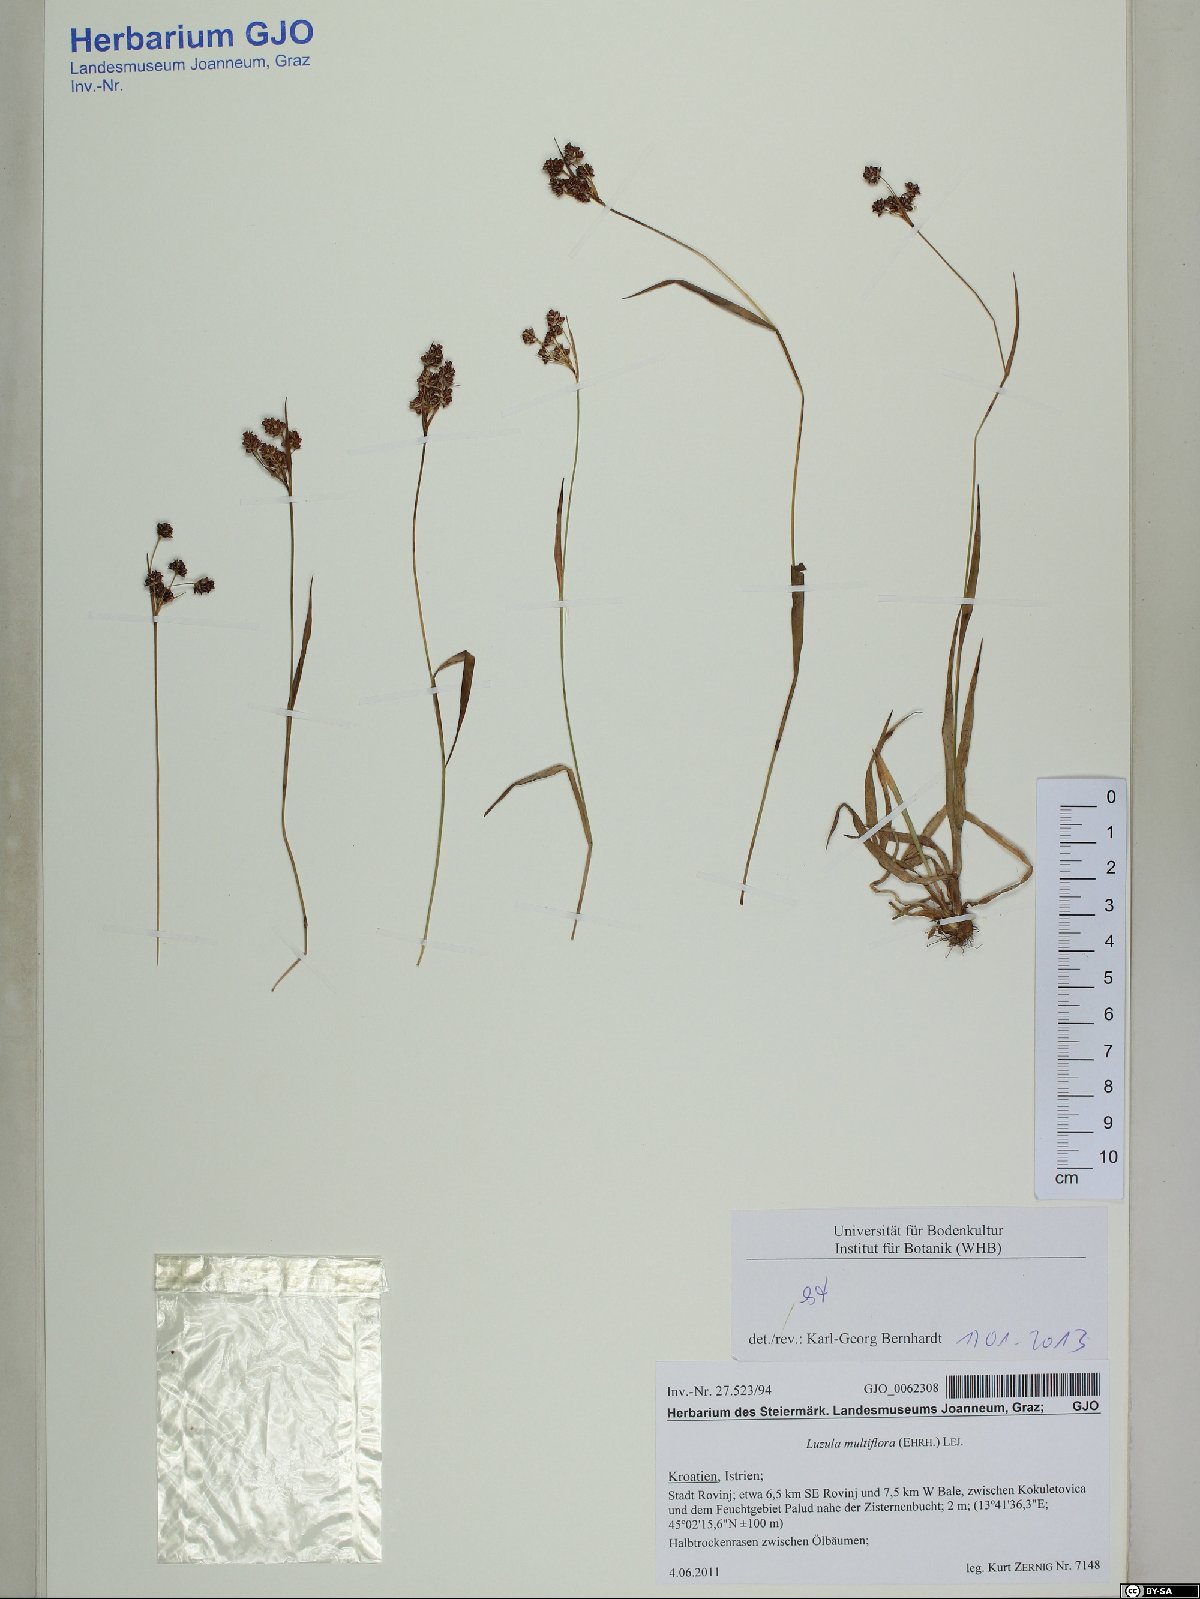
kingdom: Plantae
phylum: Tracheophyta
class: Liliopsida
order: Poales
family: Juncaceae
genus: Luzula
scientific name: Luzula multiflora
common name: Heath wood-rush
